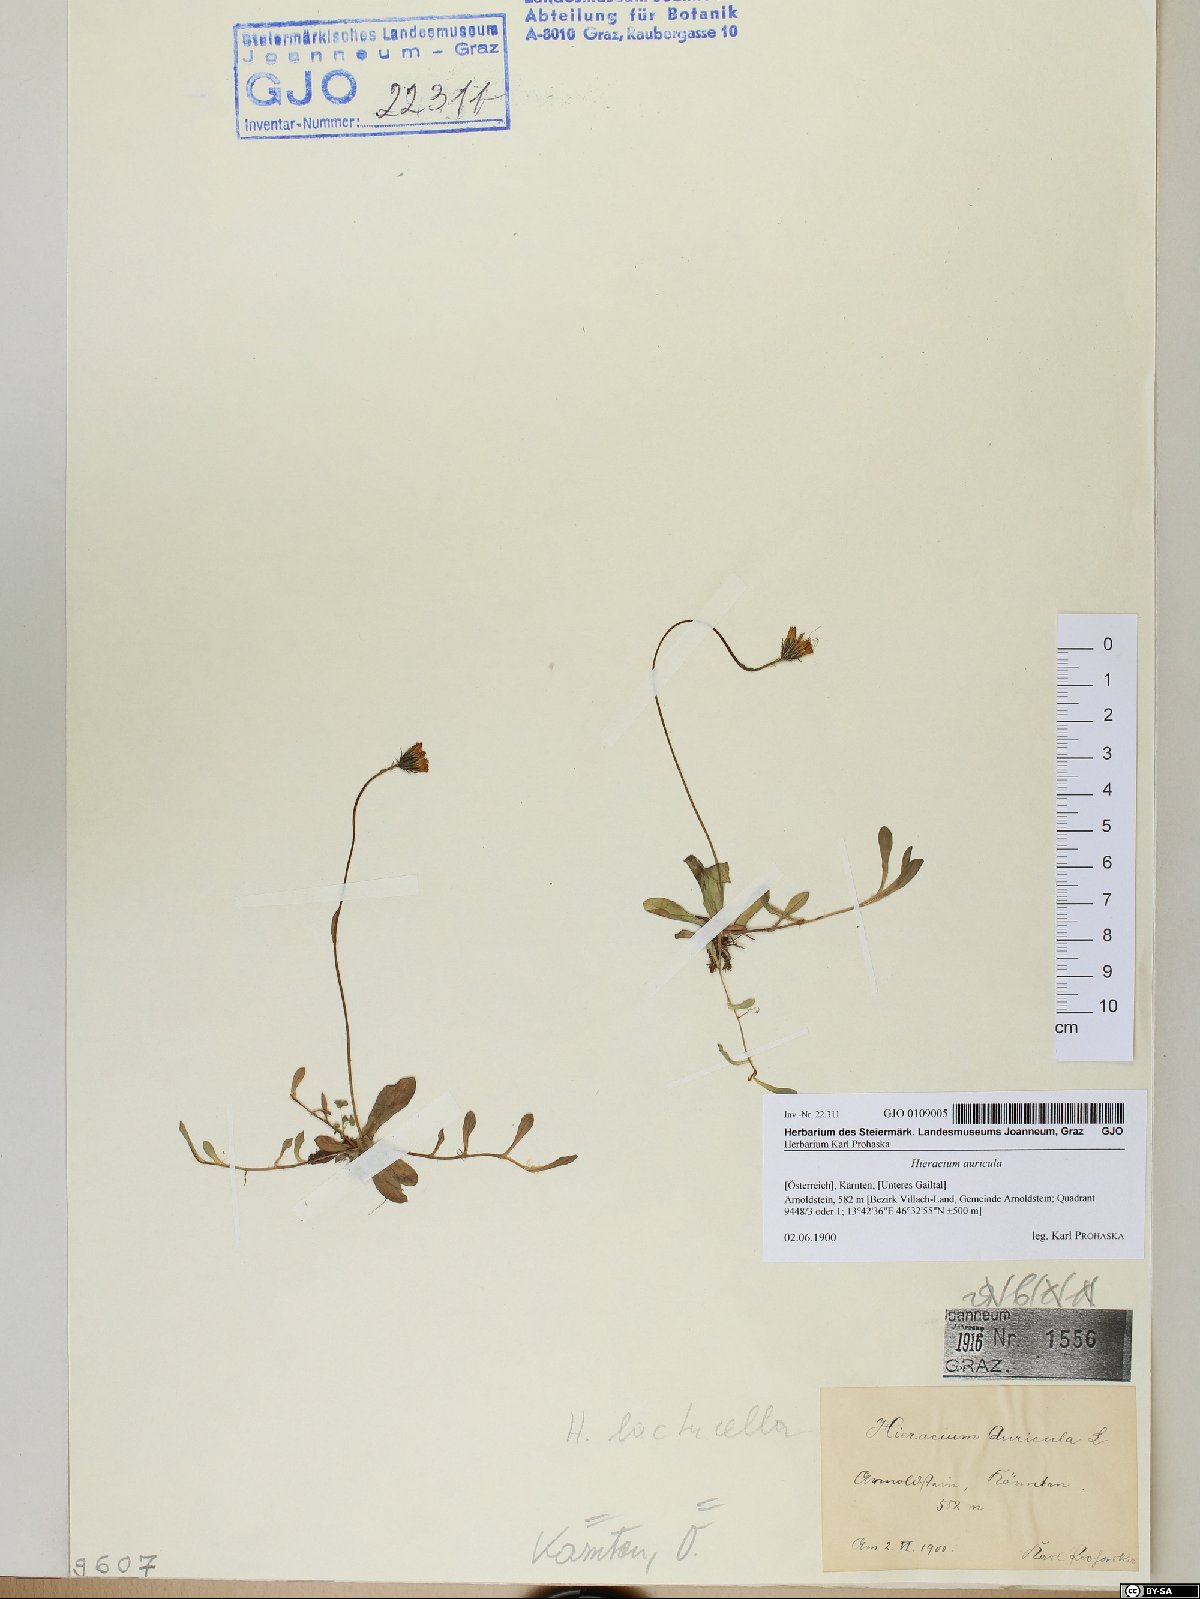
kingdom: Plantae
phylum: Tracheophyta
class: Magnoliopsida
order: Asterales
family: Asteraceae
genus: Hieracium
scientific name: Hieracium auricula
